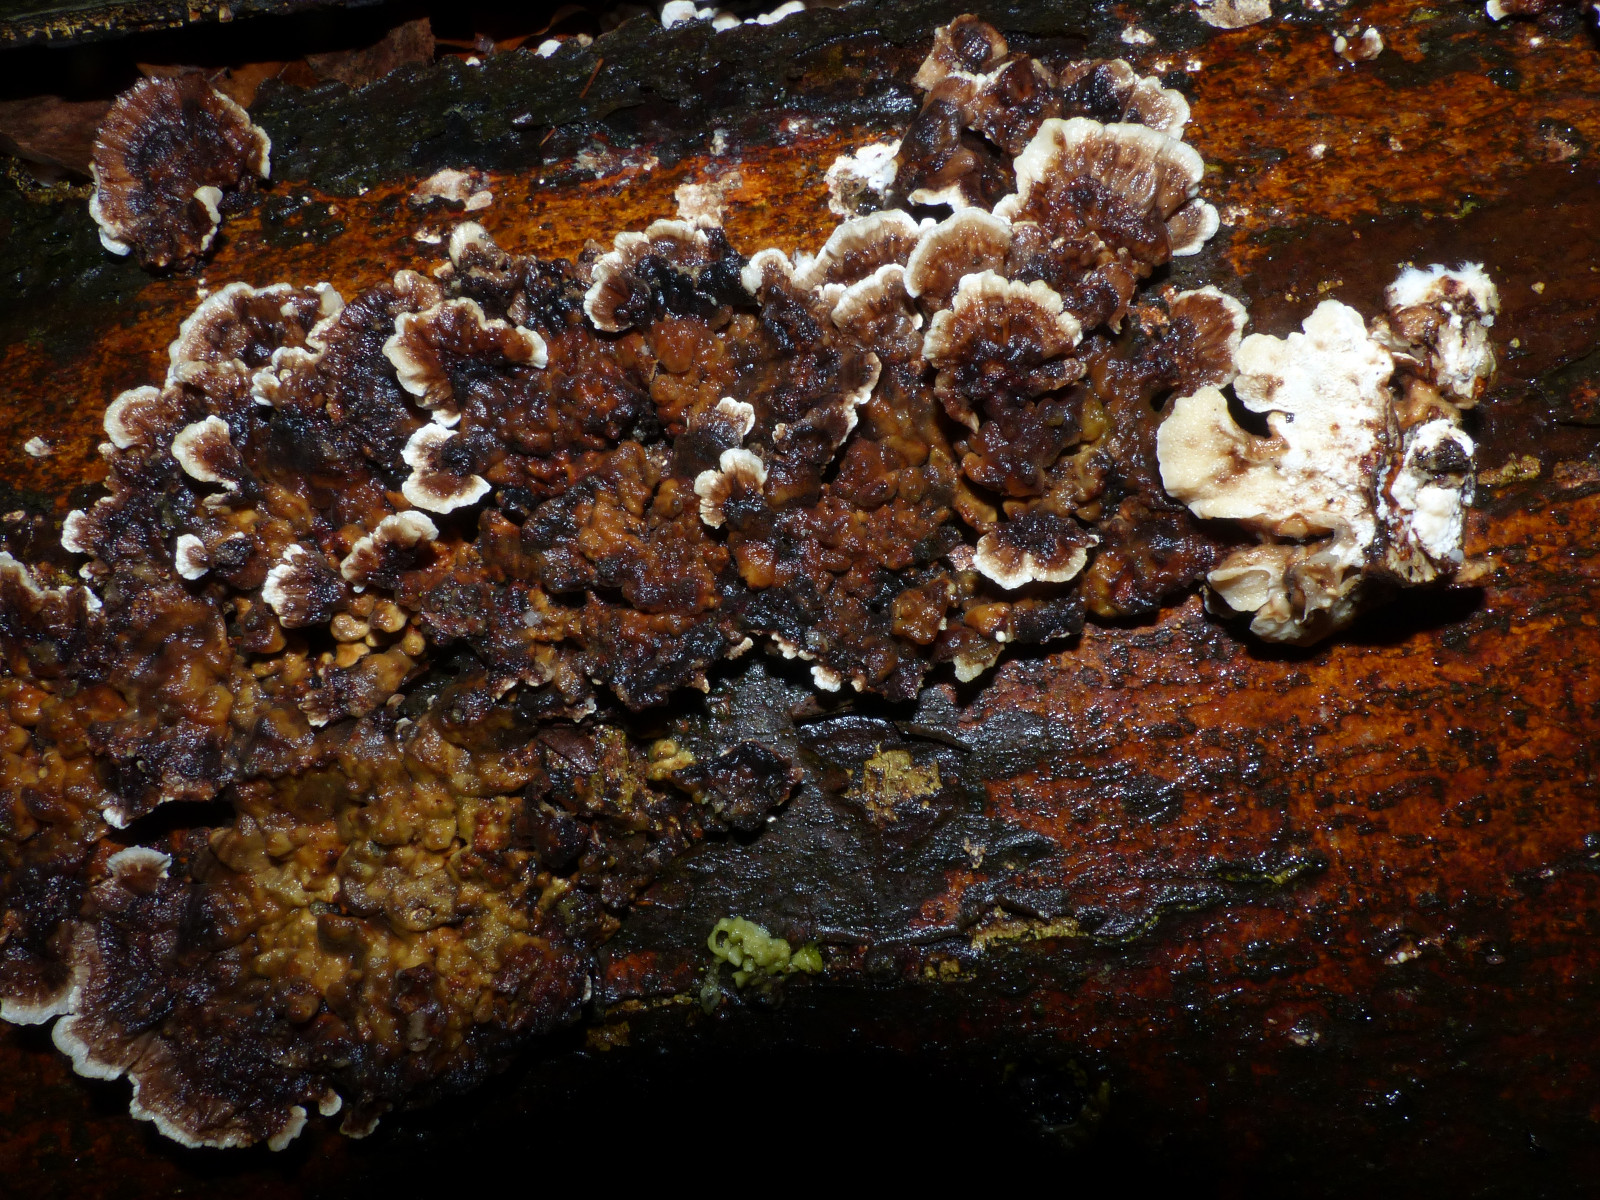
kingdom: Fungi
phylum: Basidiomycota
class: Agaricomycetes
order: Polyporales
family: Polyporaceae
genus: Trametes
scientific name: Trametes hirsuta
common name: håret læderporesvamp
